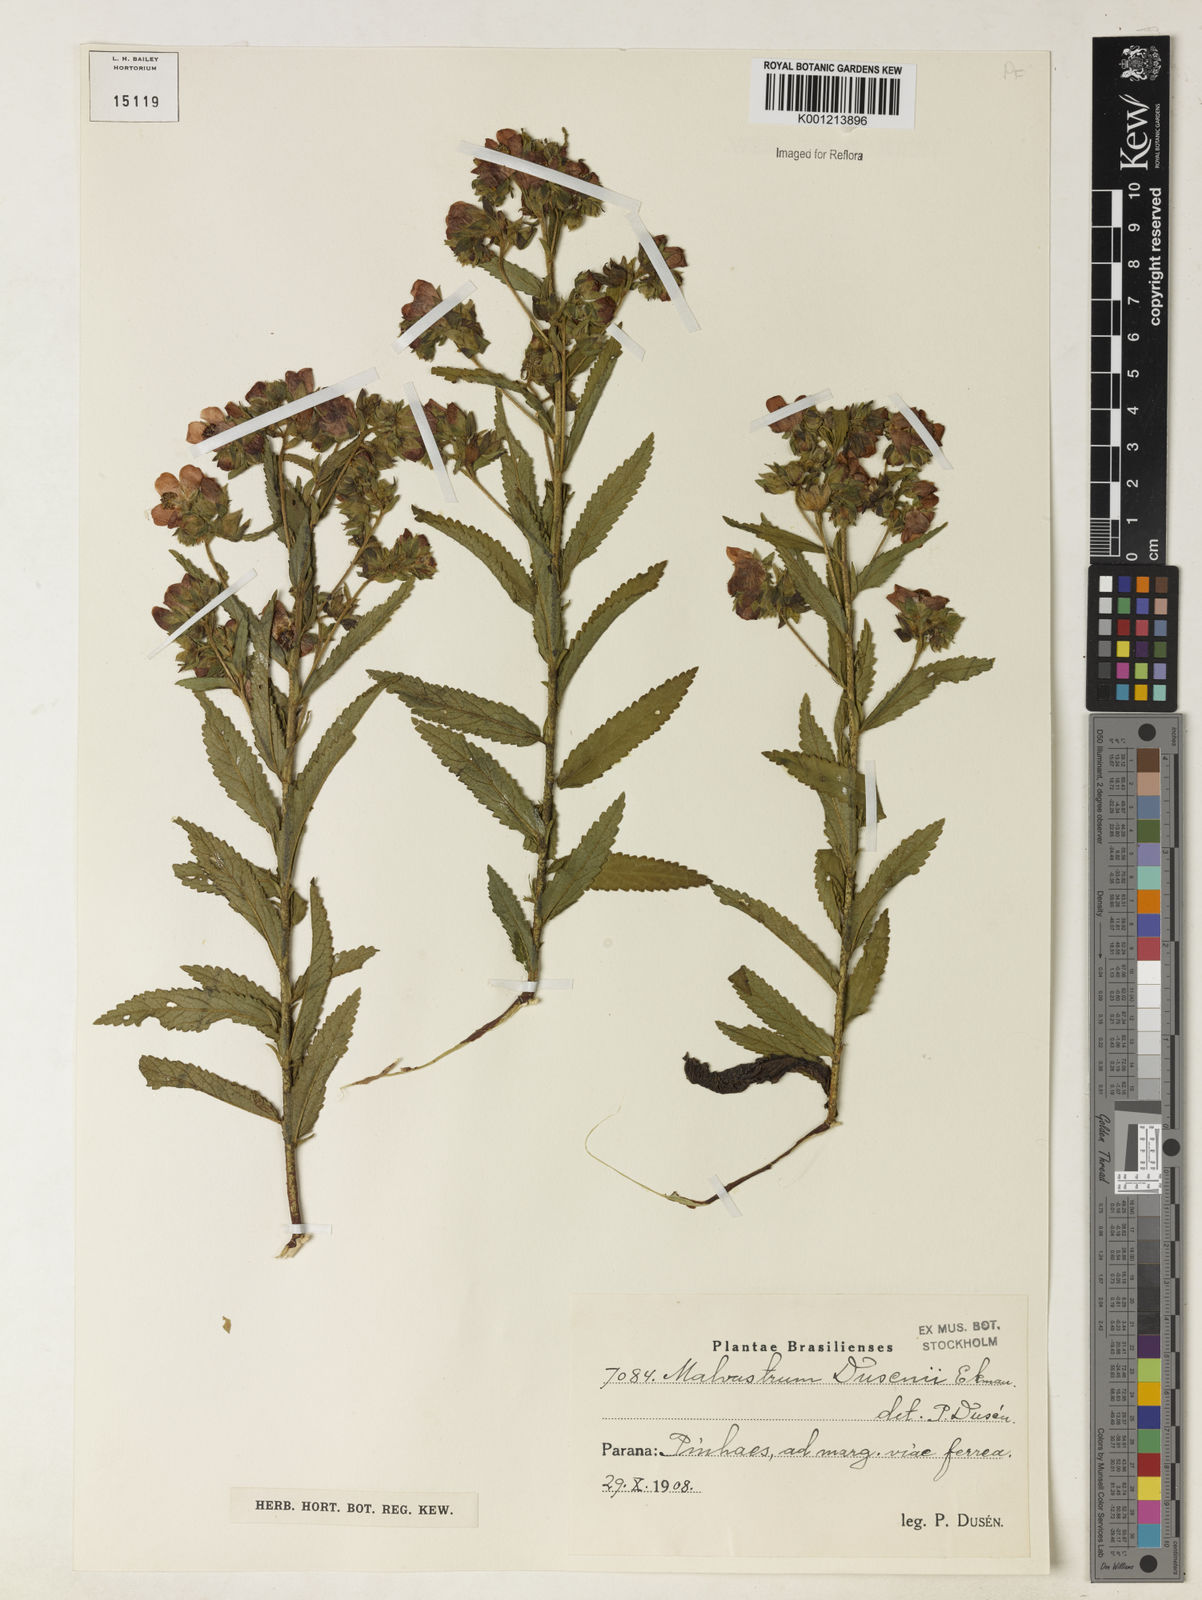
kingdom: Plantae
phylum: Tracheophyta
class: Magnoliopsida
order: Malvales
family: Malvaceae
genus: Monteiroa
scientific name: Monteiroa dusenii
